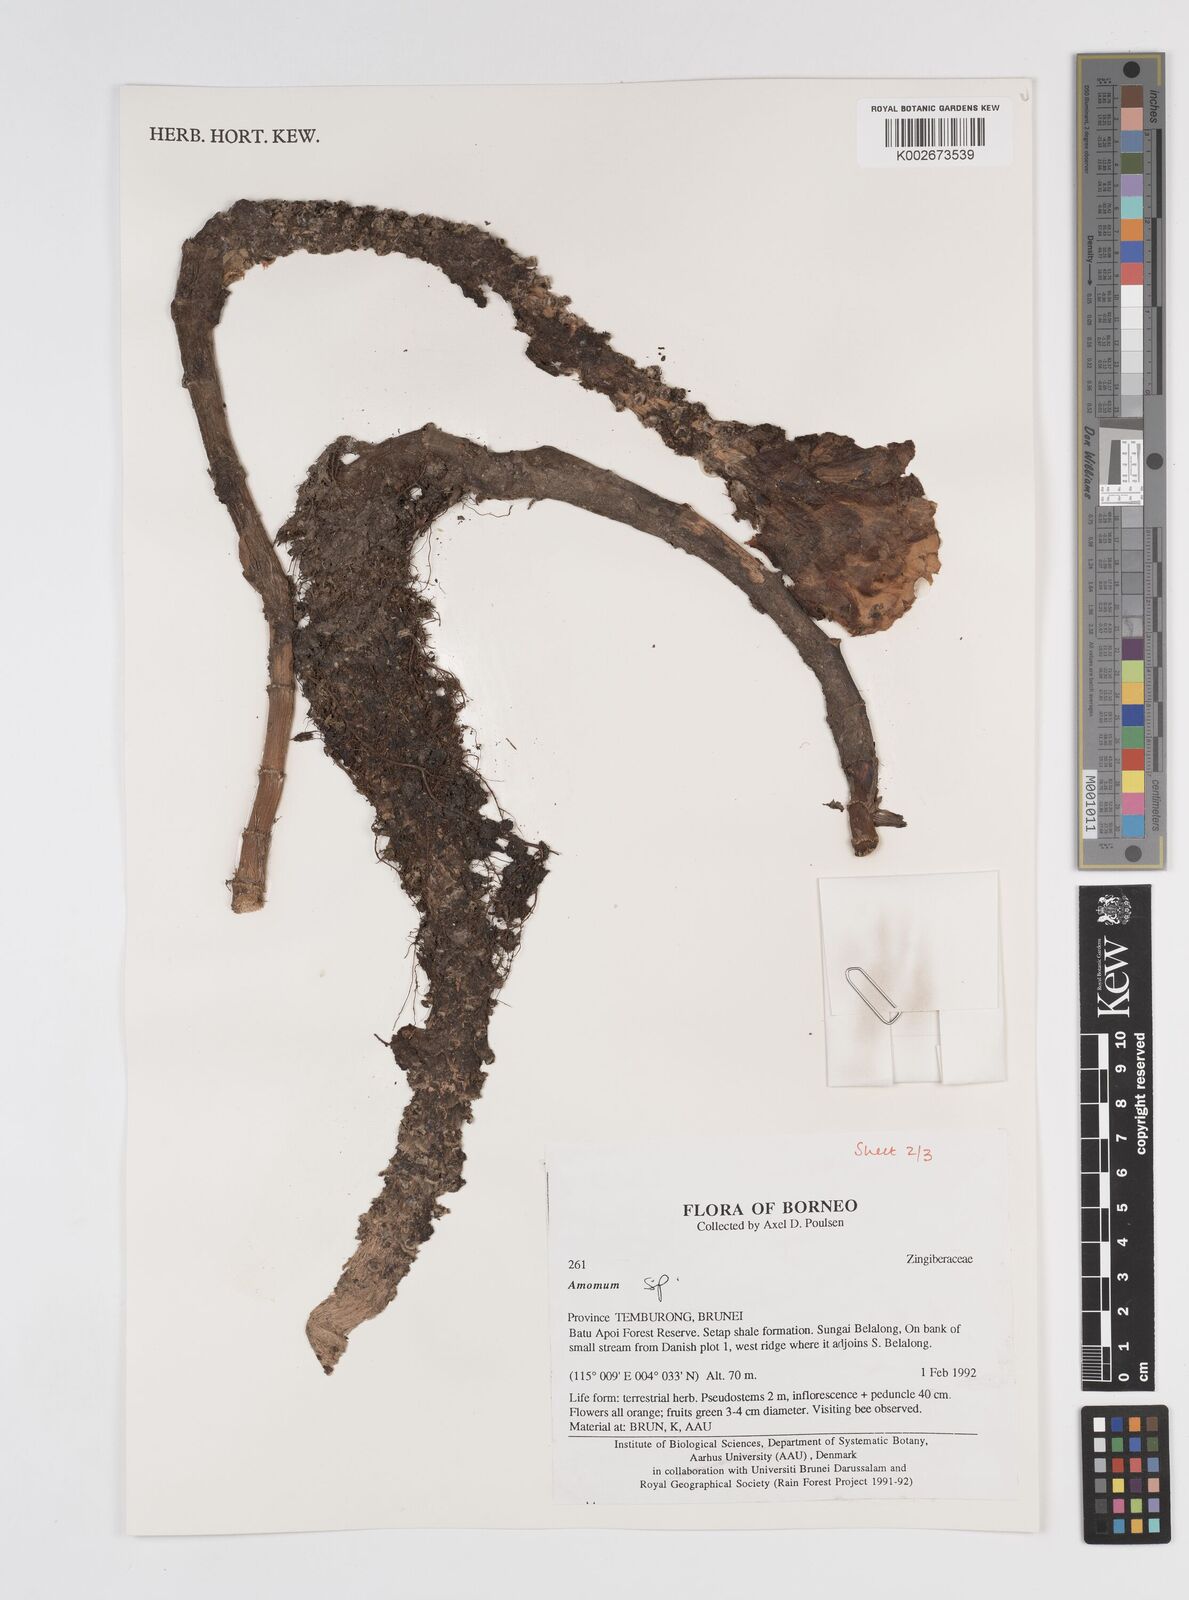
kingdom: Plantae
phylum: Tracheophyta
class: Liliopsida
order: Zingiberales
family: Zingiberaceae
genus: Amomum
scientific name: Amomum
